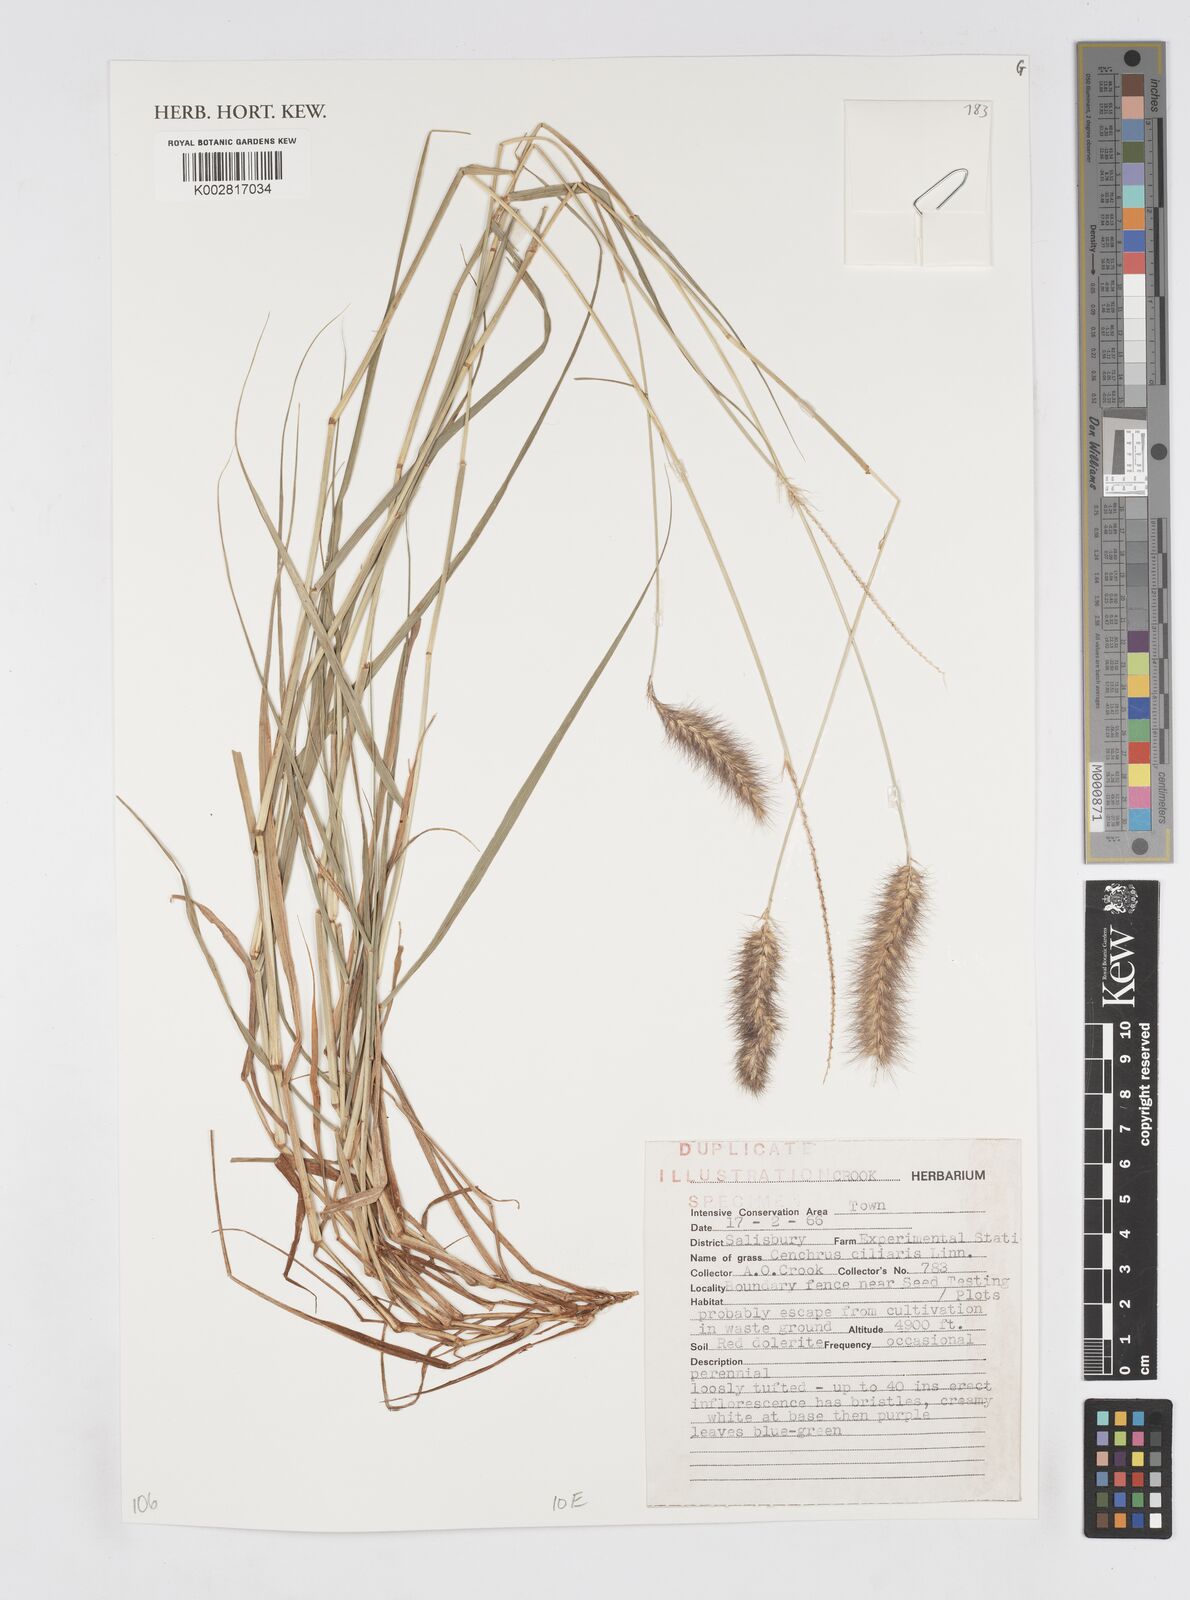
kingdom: Plantae
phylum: Tracheophyta
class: Liliopsida
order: Poales
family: Poaceae
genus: Cenchrus
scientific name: Cenchrus ciliaris
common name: Buffelgrass
